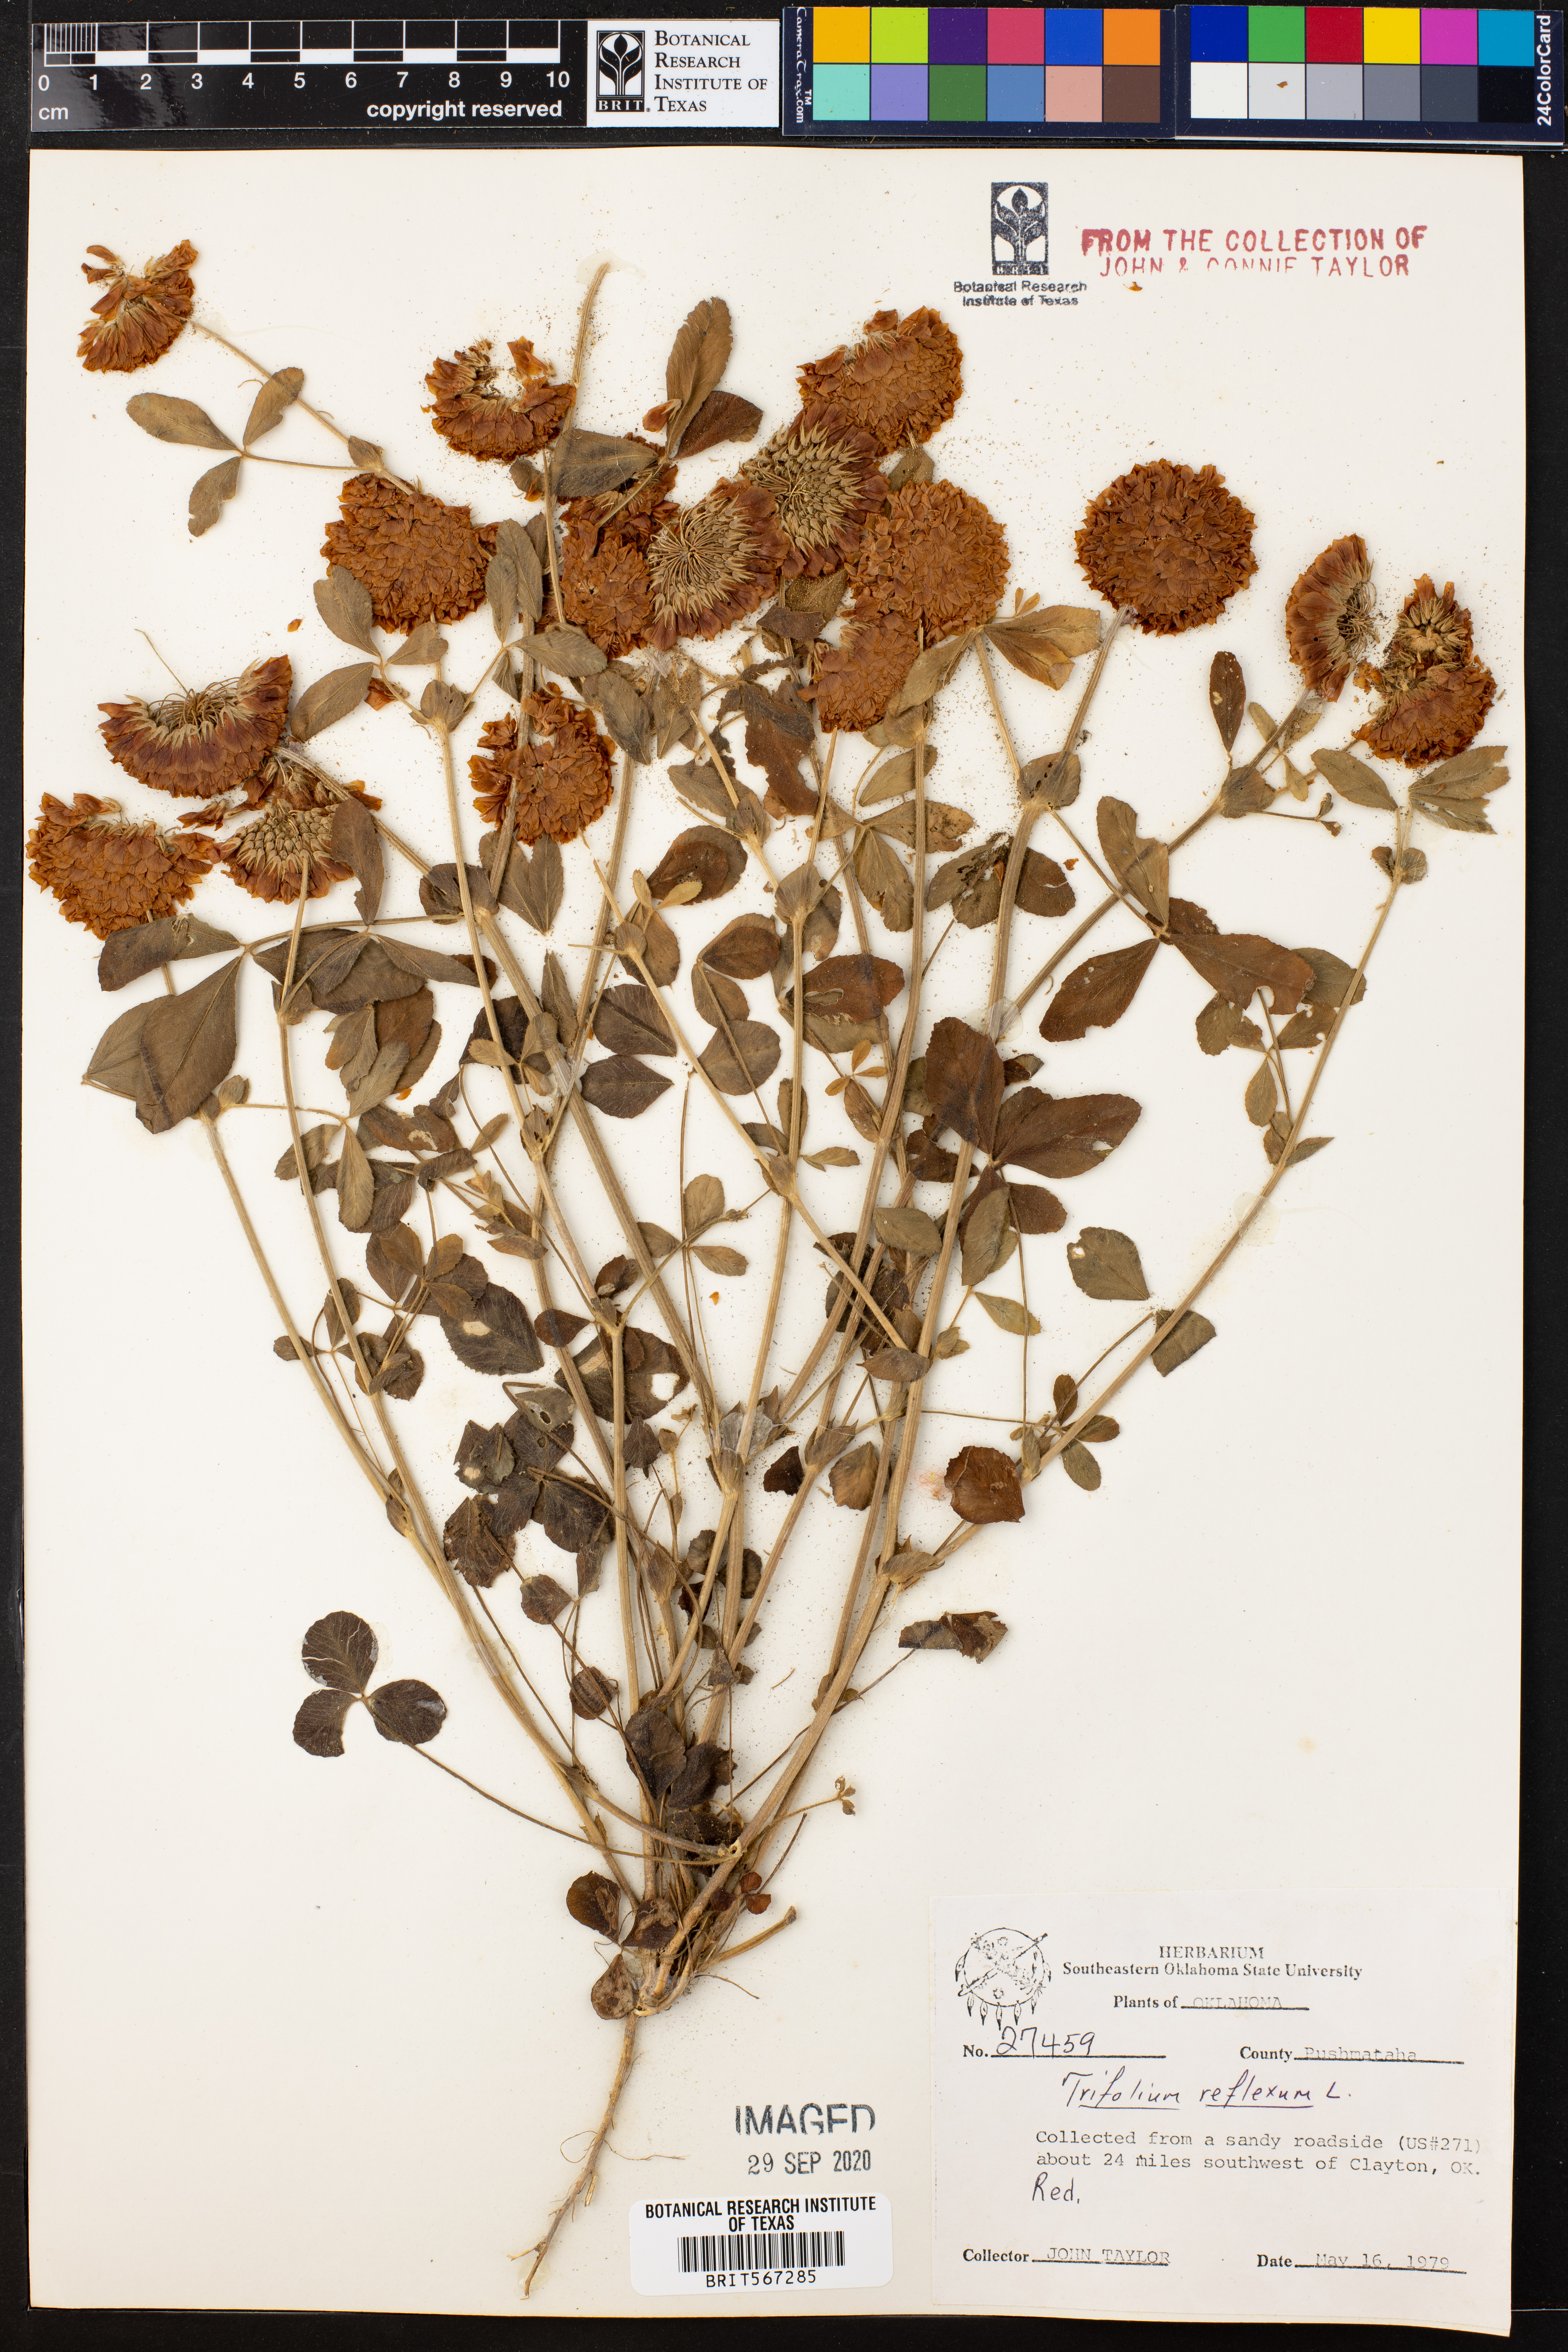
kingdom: Plantae
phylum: Tracheophyta
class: Magnoliopsida
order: Fabales
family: Fabaceae
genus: Trifolium
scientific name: Trifolium reflexum
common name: Buffalo clover
